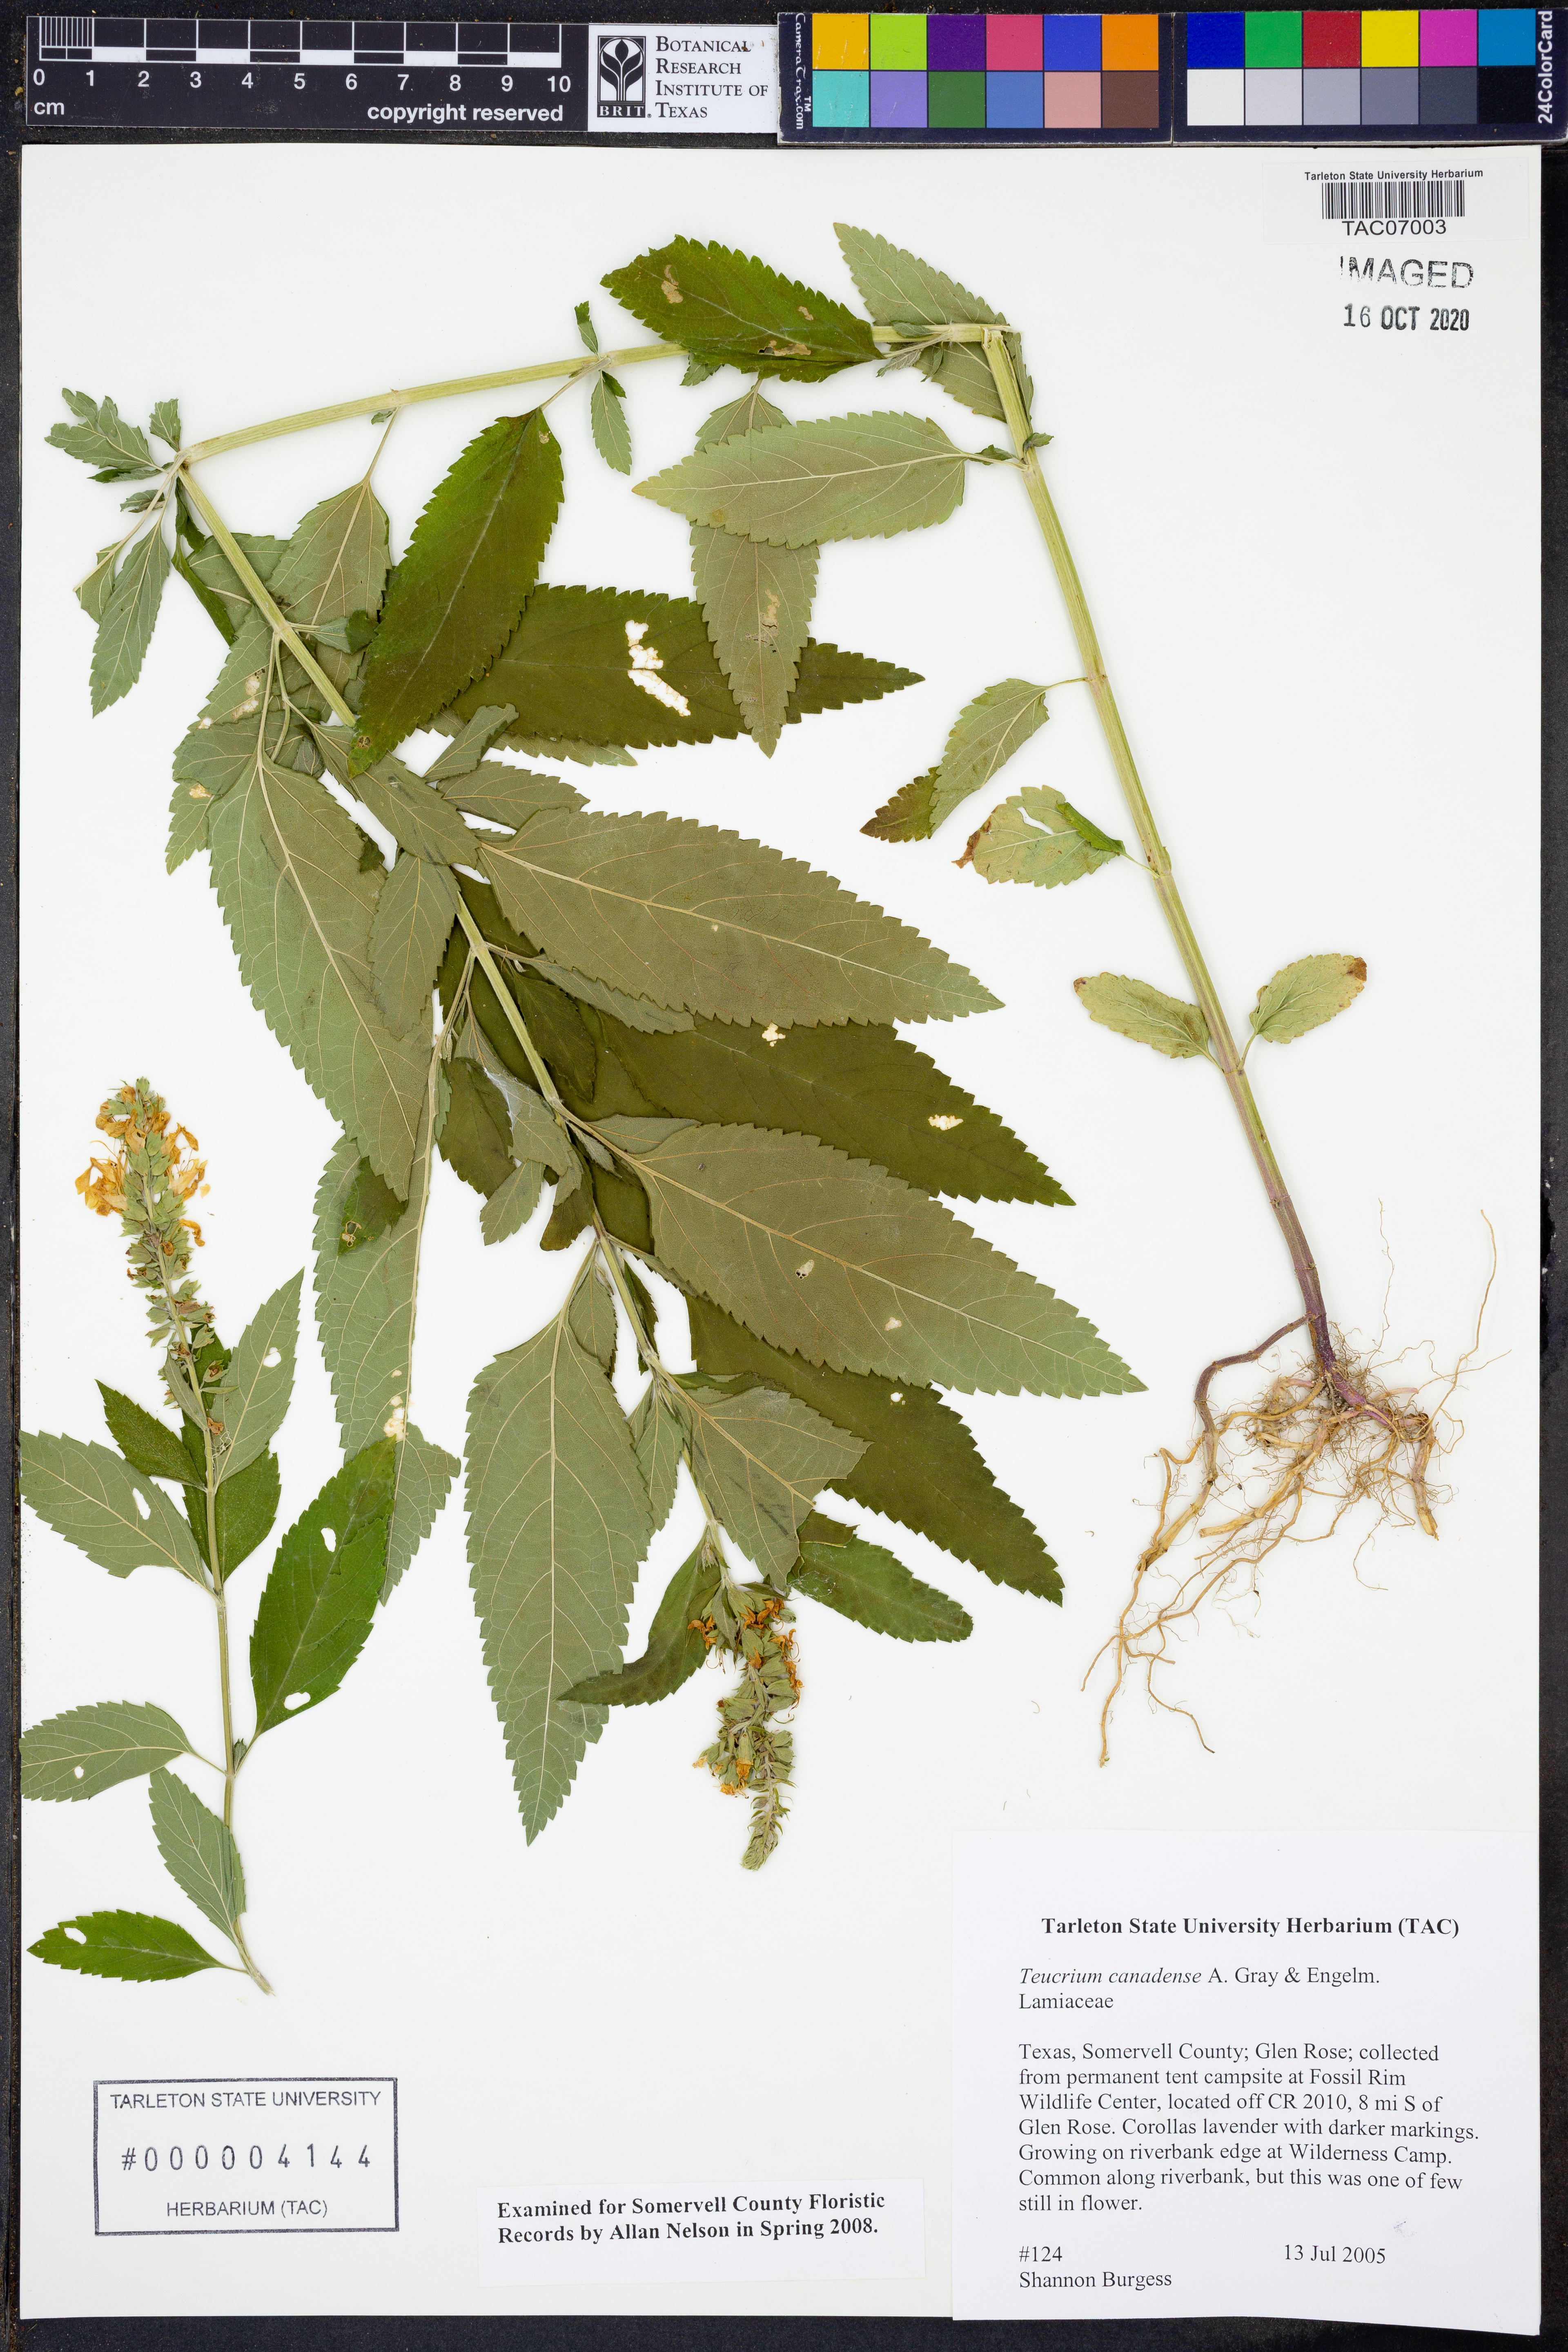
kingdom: Plantae
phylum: Tracheophyta
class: Magnoliopsida
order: Lamiales
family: Lamiaceae
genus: Teucrium
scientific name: Teucrium canadense
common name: American germander
